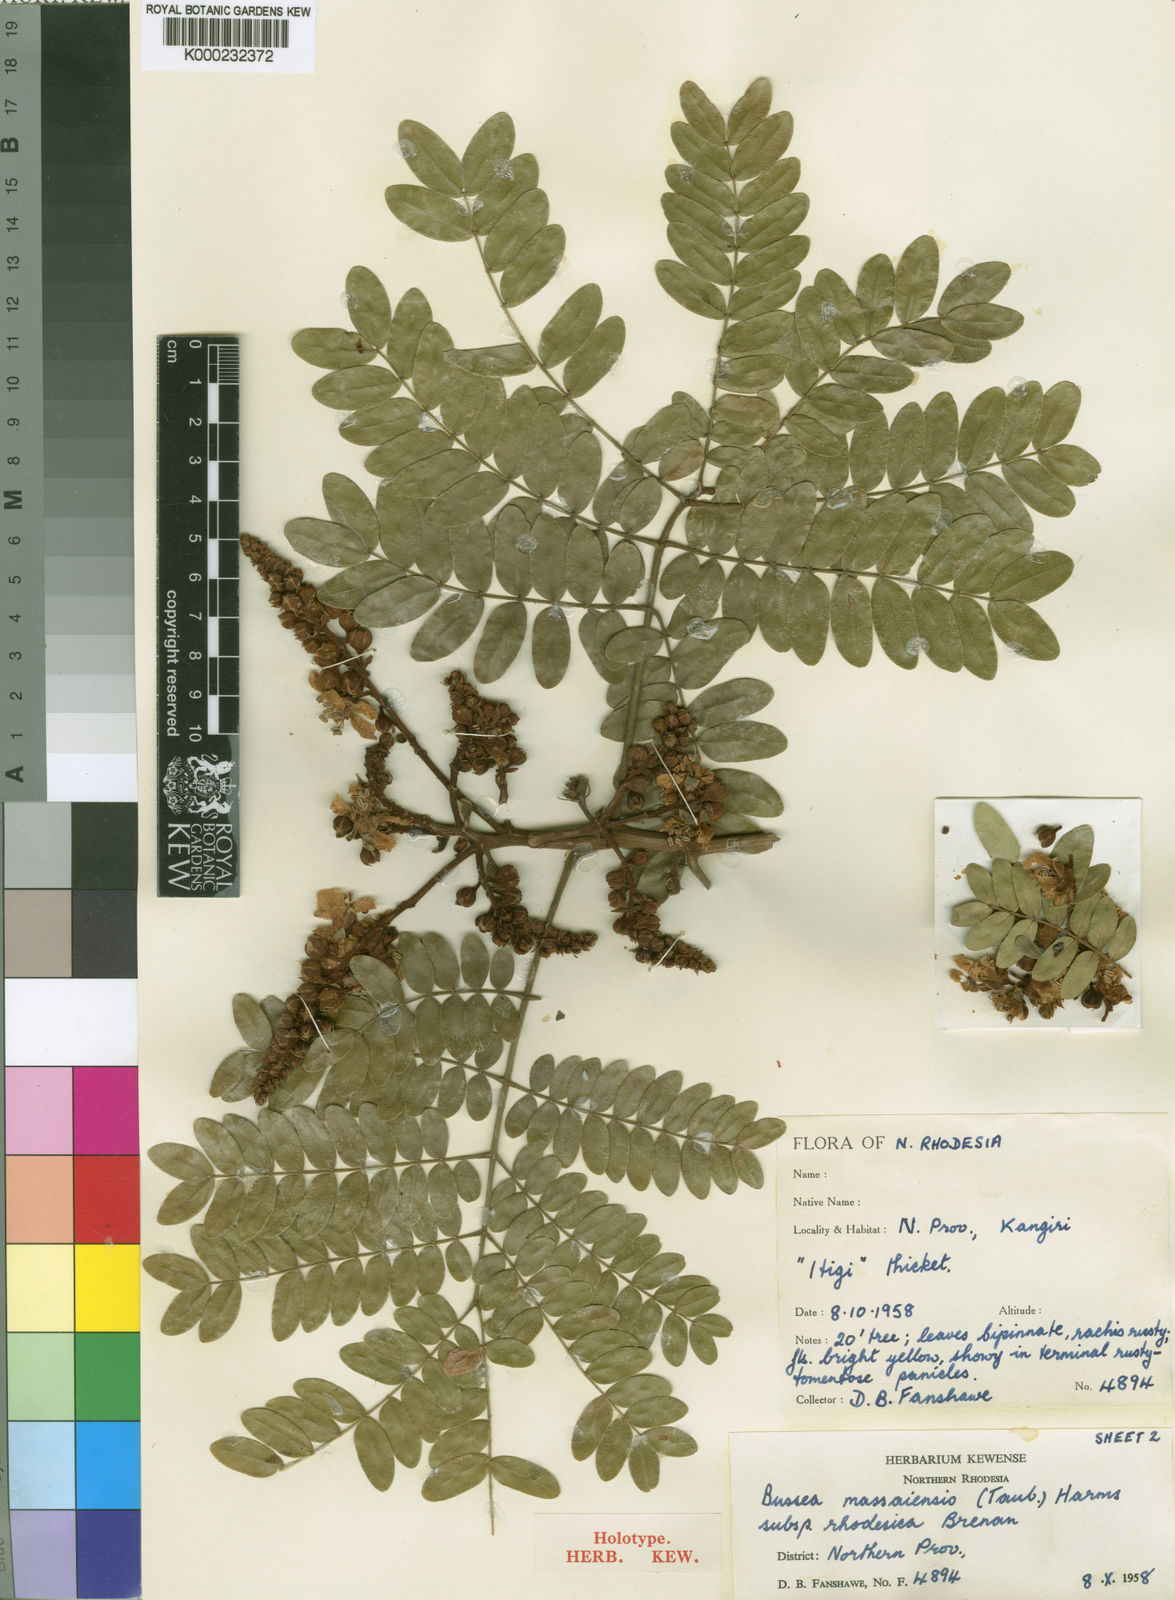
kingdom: Plantae
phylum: Tracheophyta
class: Magnoliopsida
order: Fabales
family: Fabaceae
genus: Bussea
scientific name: Bussea massaiensis
